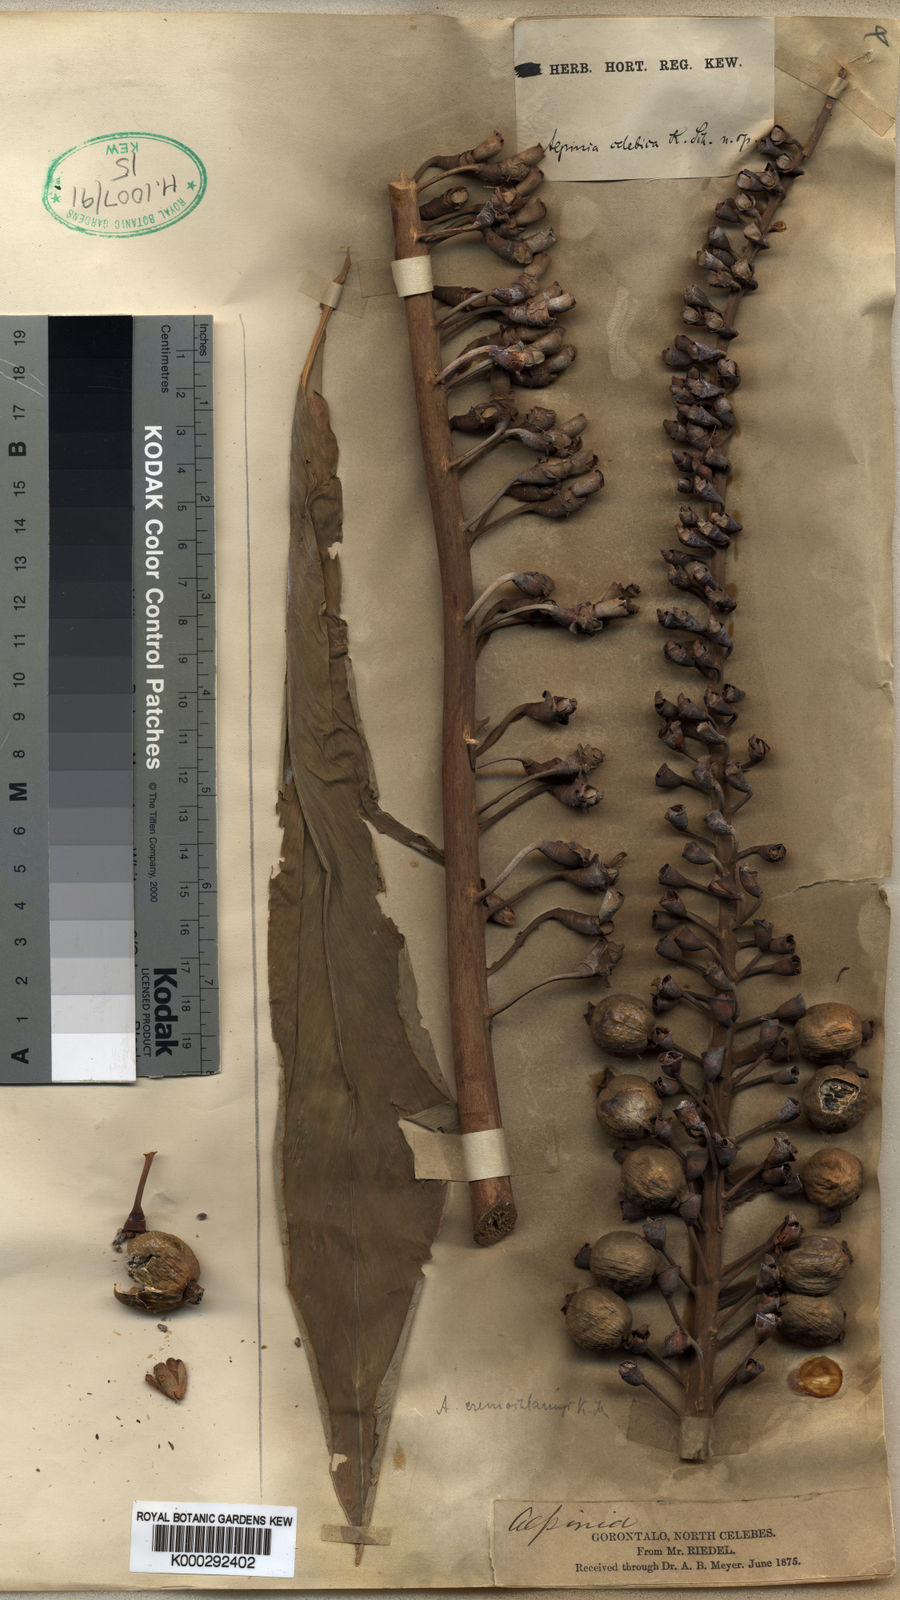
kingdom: Plantae
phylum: Tracheophyta
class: Liliopsida
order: Zingiberales
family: Zingiberaceae
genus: Alpinia
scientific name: Alpinia celebica
